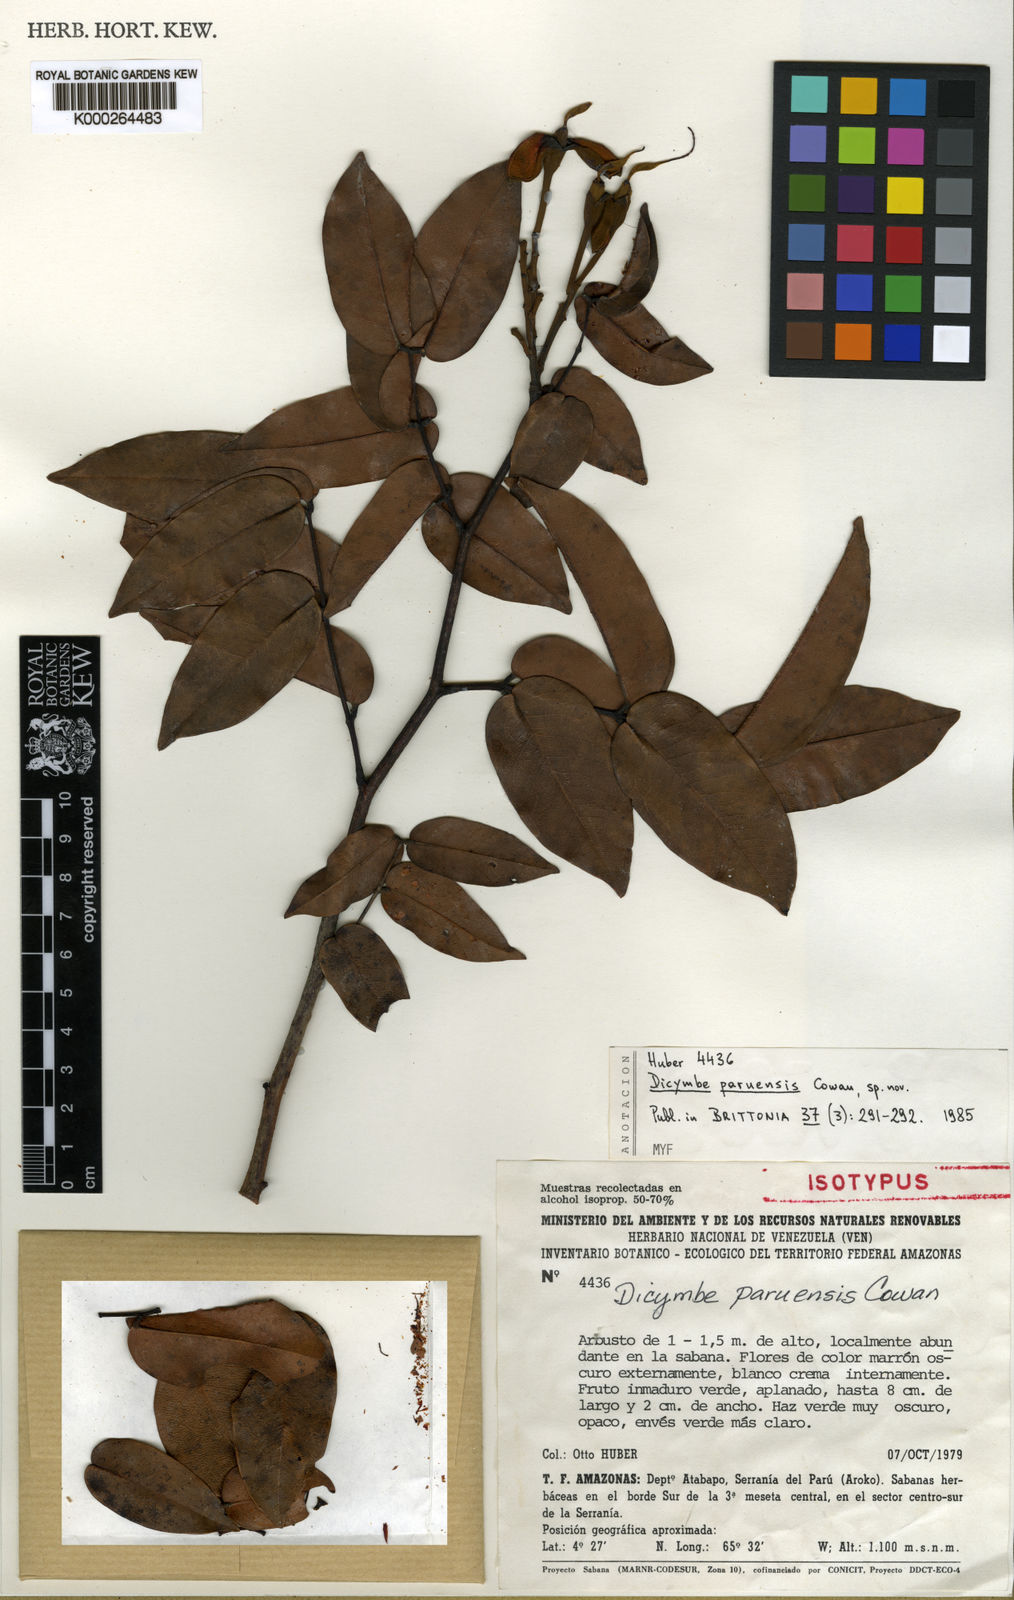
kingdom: Plantae
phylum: Tracheophyta
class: Magnoliopsida
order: Fabales
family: Fabaceae
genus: Dicymbe
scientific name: Dicymbe paruensis
